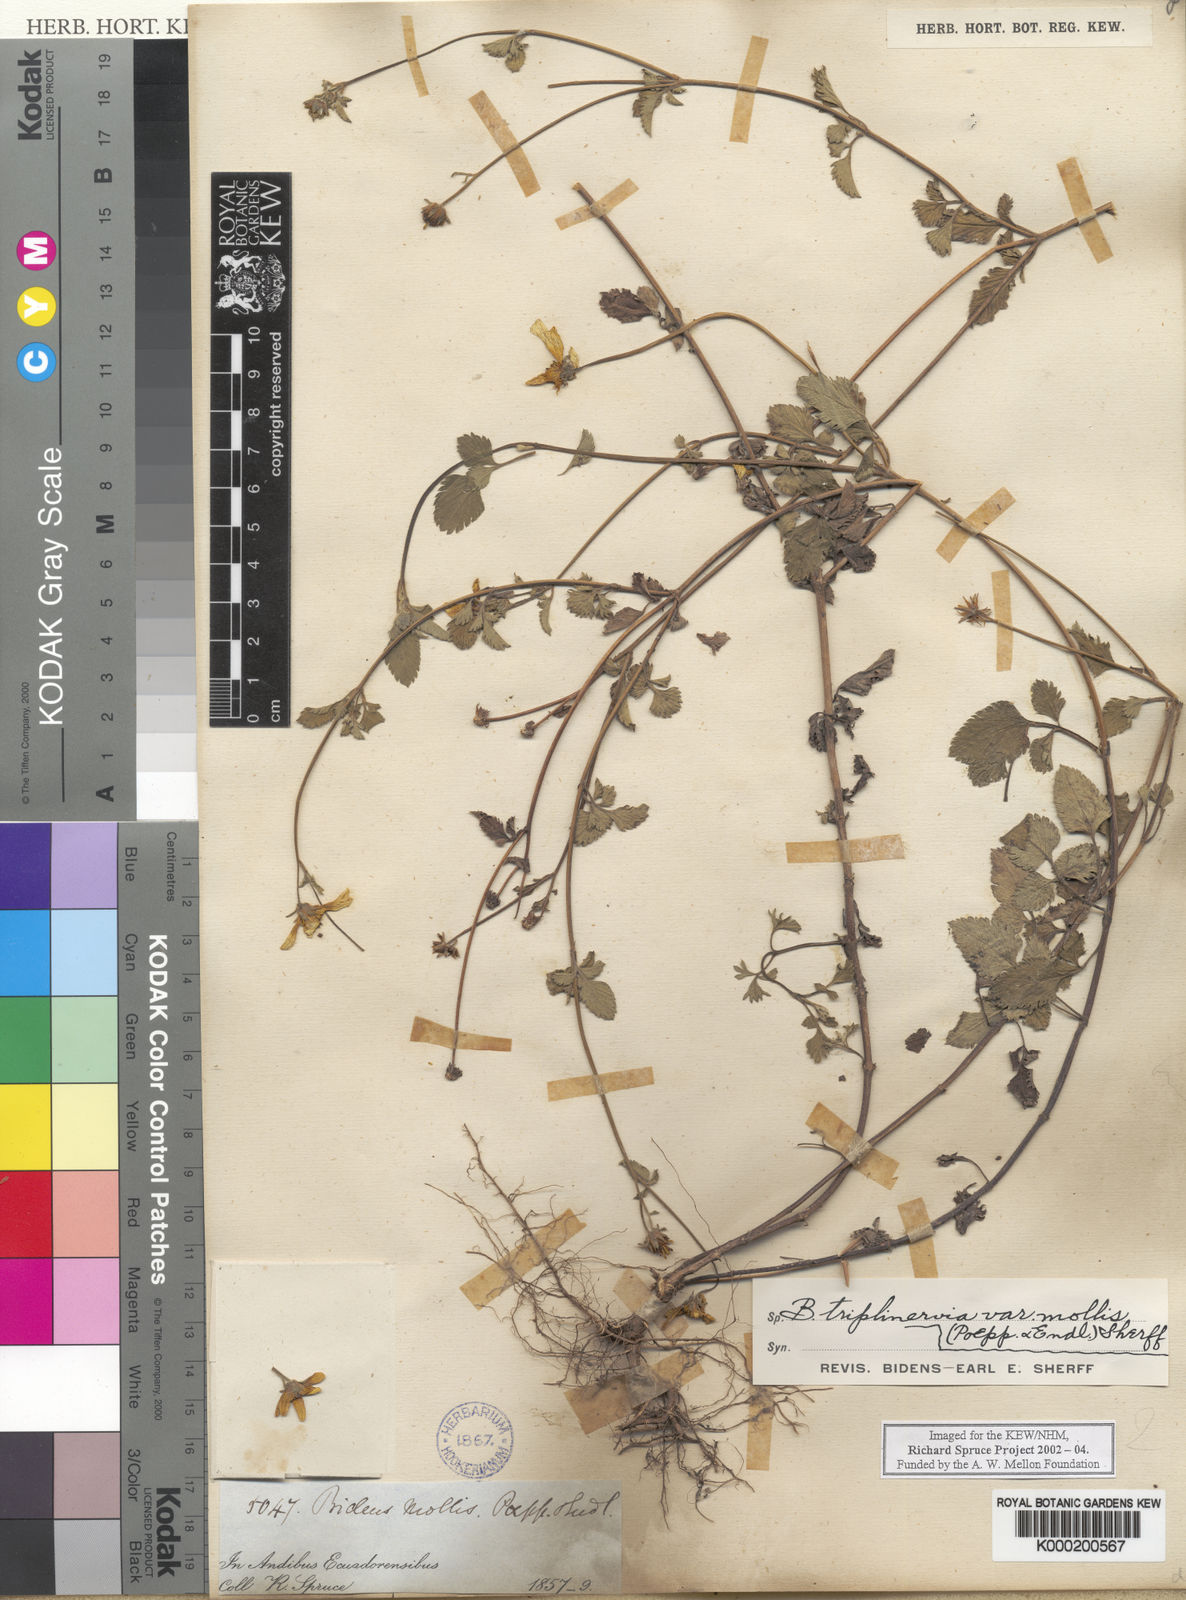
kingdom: Plantae
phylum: Tracheophyta
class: Magnoliopsida
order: Asterales
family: Asteraceae
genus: Bidens
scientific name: Bidens triplinervia
